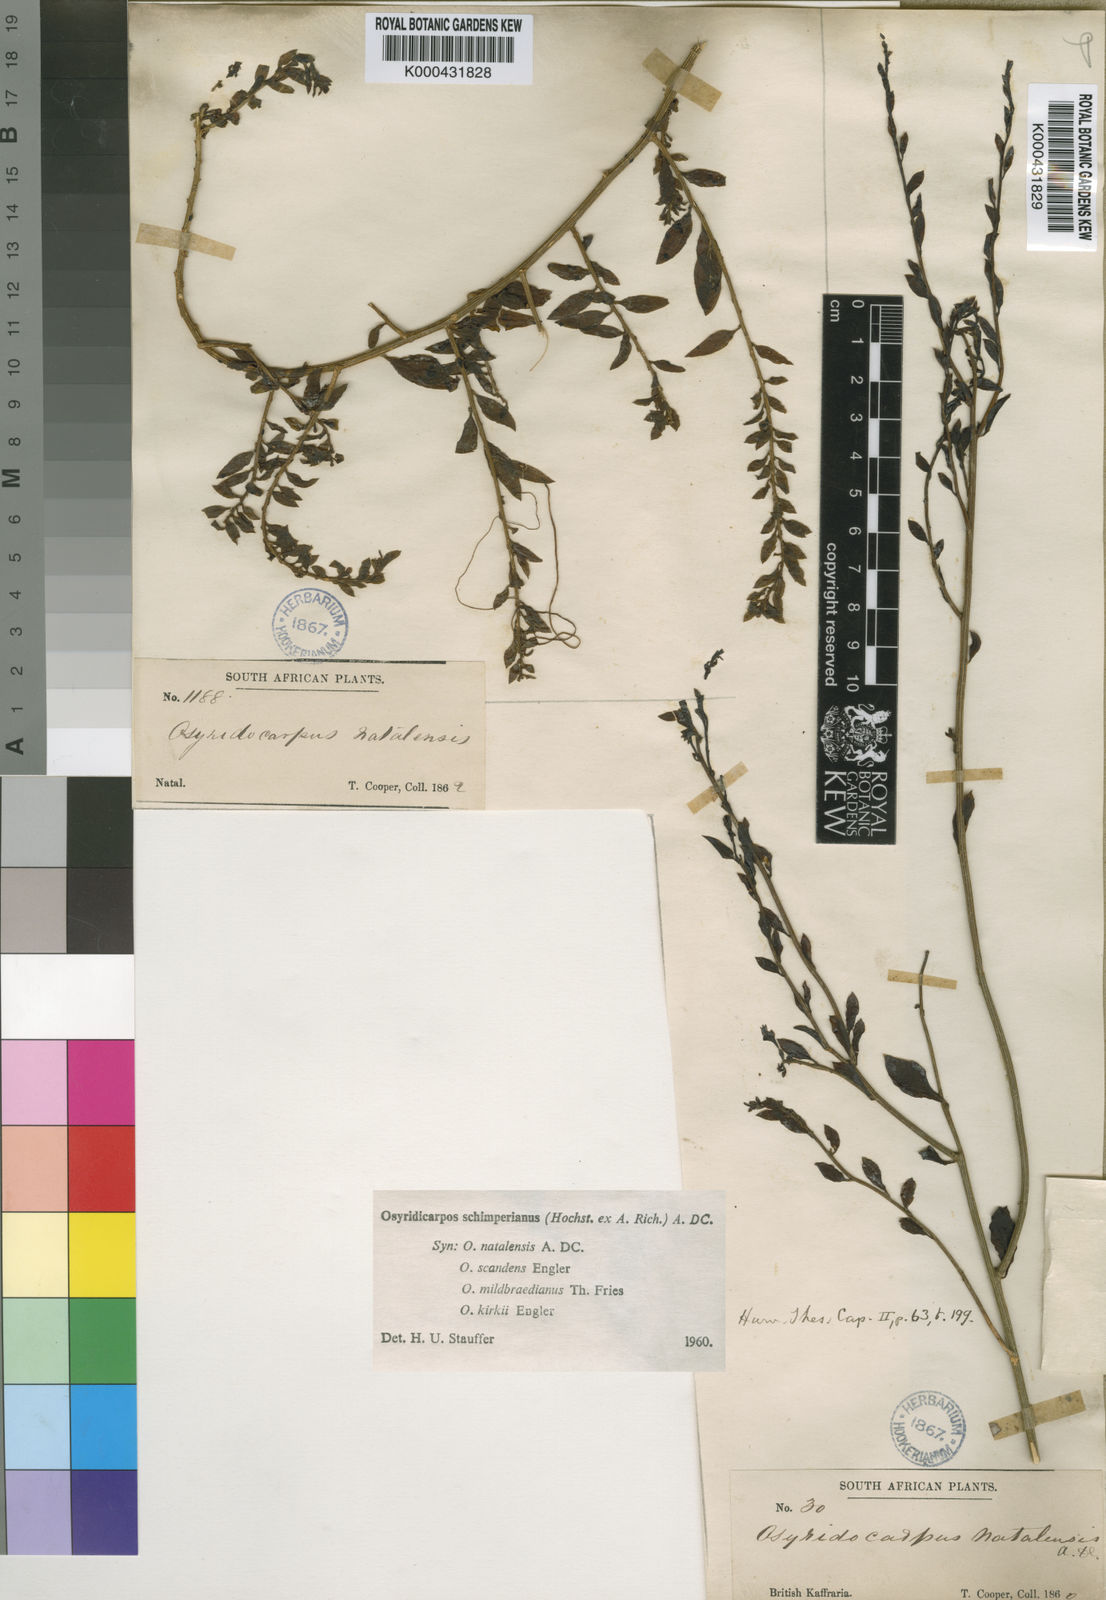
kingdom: Plantae
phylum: Tracheophyta
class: Magnoliopsida
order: Santalales
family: Thesiaceae
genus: Osyridicarpos
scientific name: Osyridicarpos schimperianus
